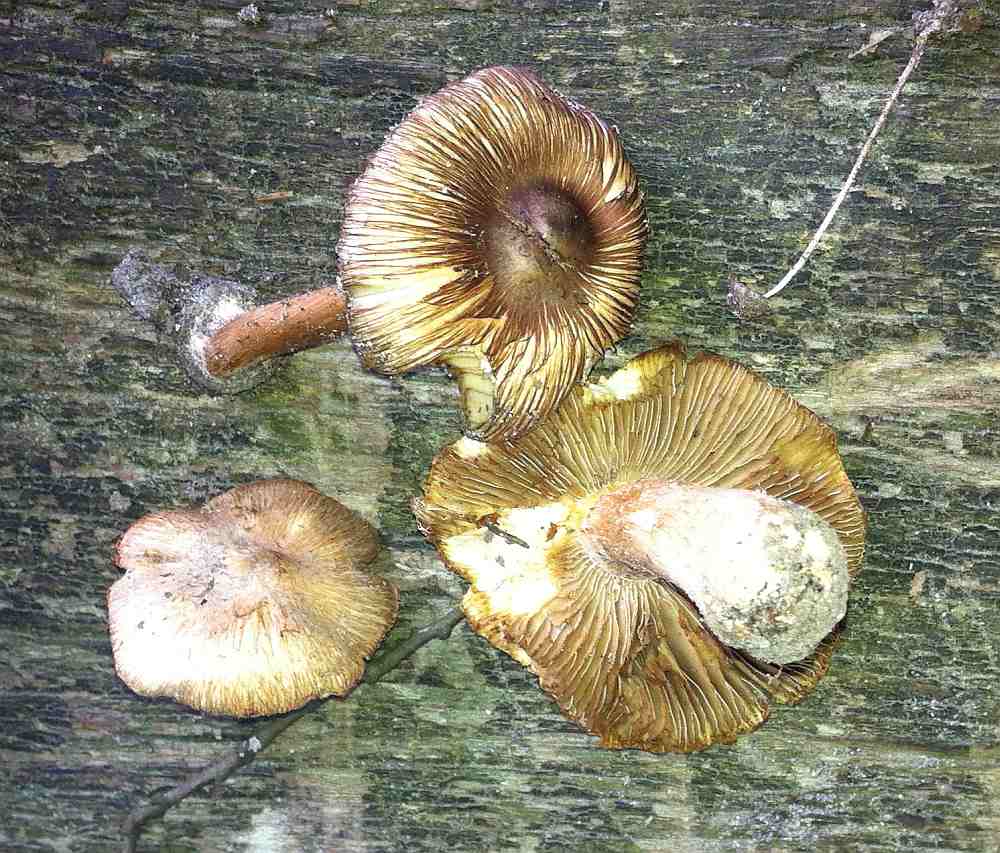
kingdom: Fungi
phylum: Basidiomycota
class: Agaricomycetes
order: Agaricales
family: Inocybaceae
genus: Inocybe
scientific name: Inocybe asterospora
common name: stjernesporet trævlhat
